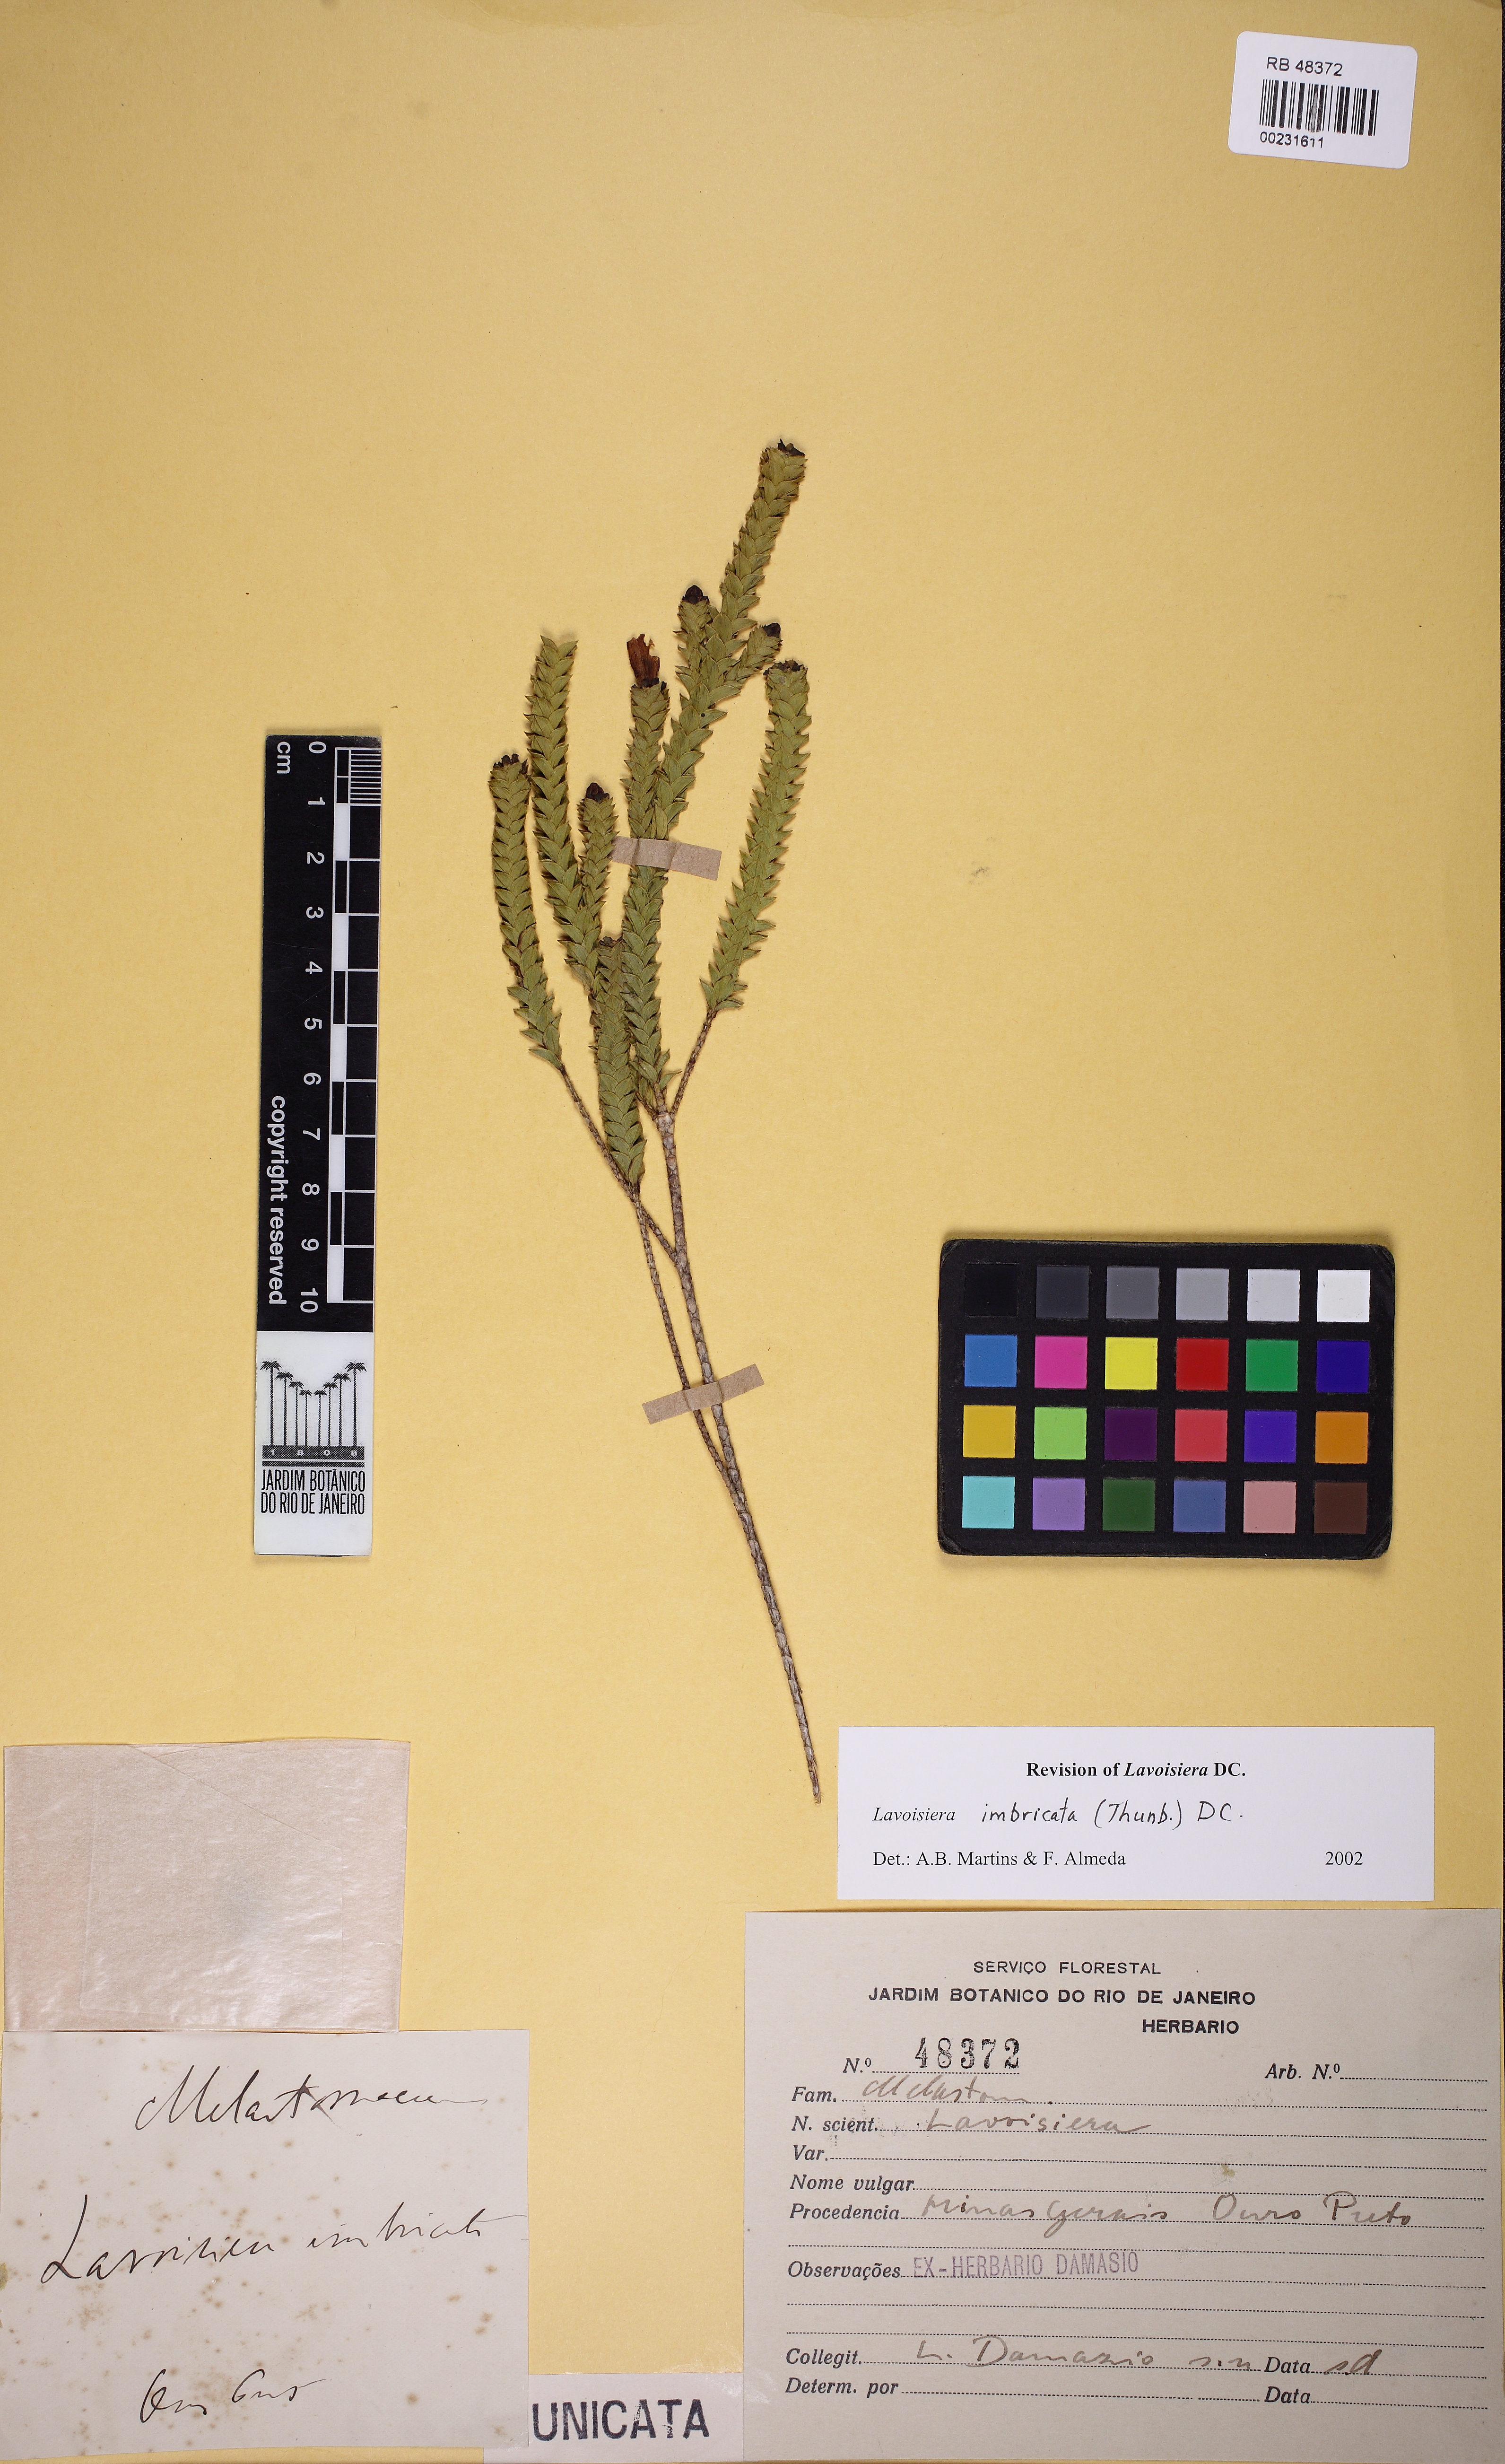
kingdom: Plantae
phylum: Tracheophyta
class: Magnoliopsida
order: Myrtales
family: Melastomataceae
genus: Microlicia
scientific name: Microlicia cataphracta
